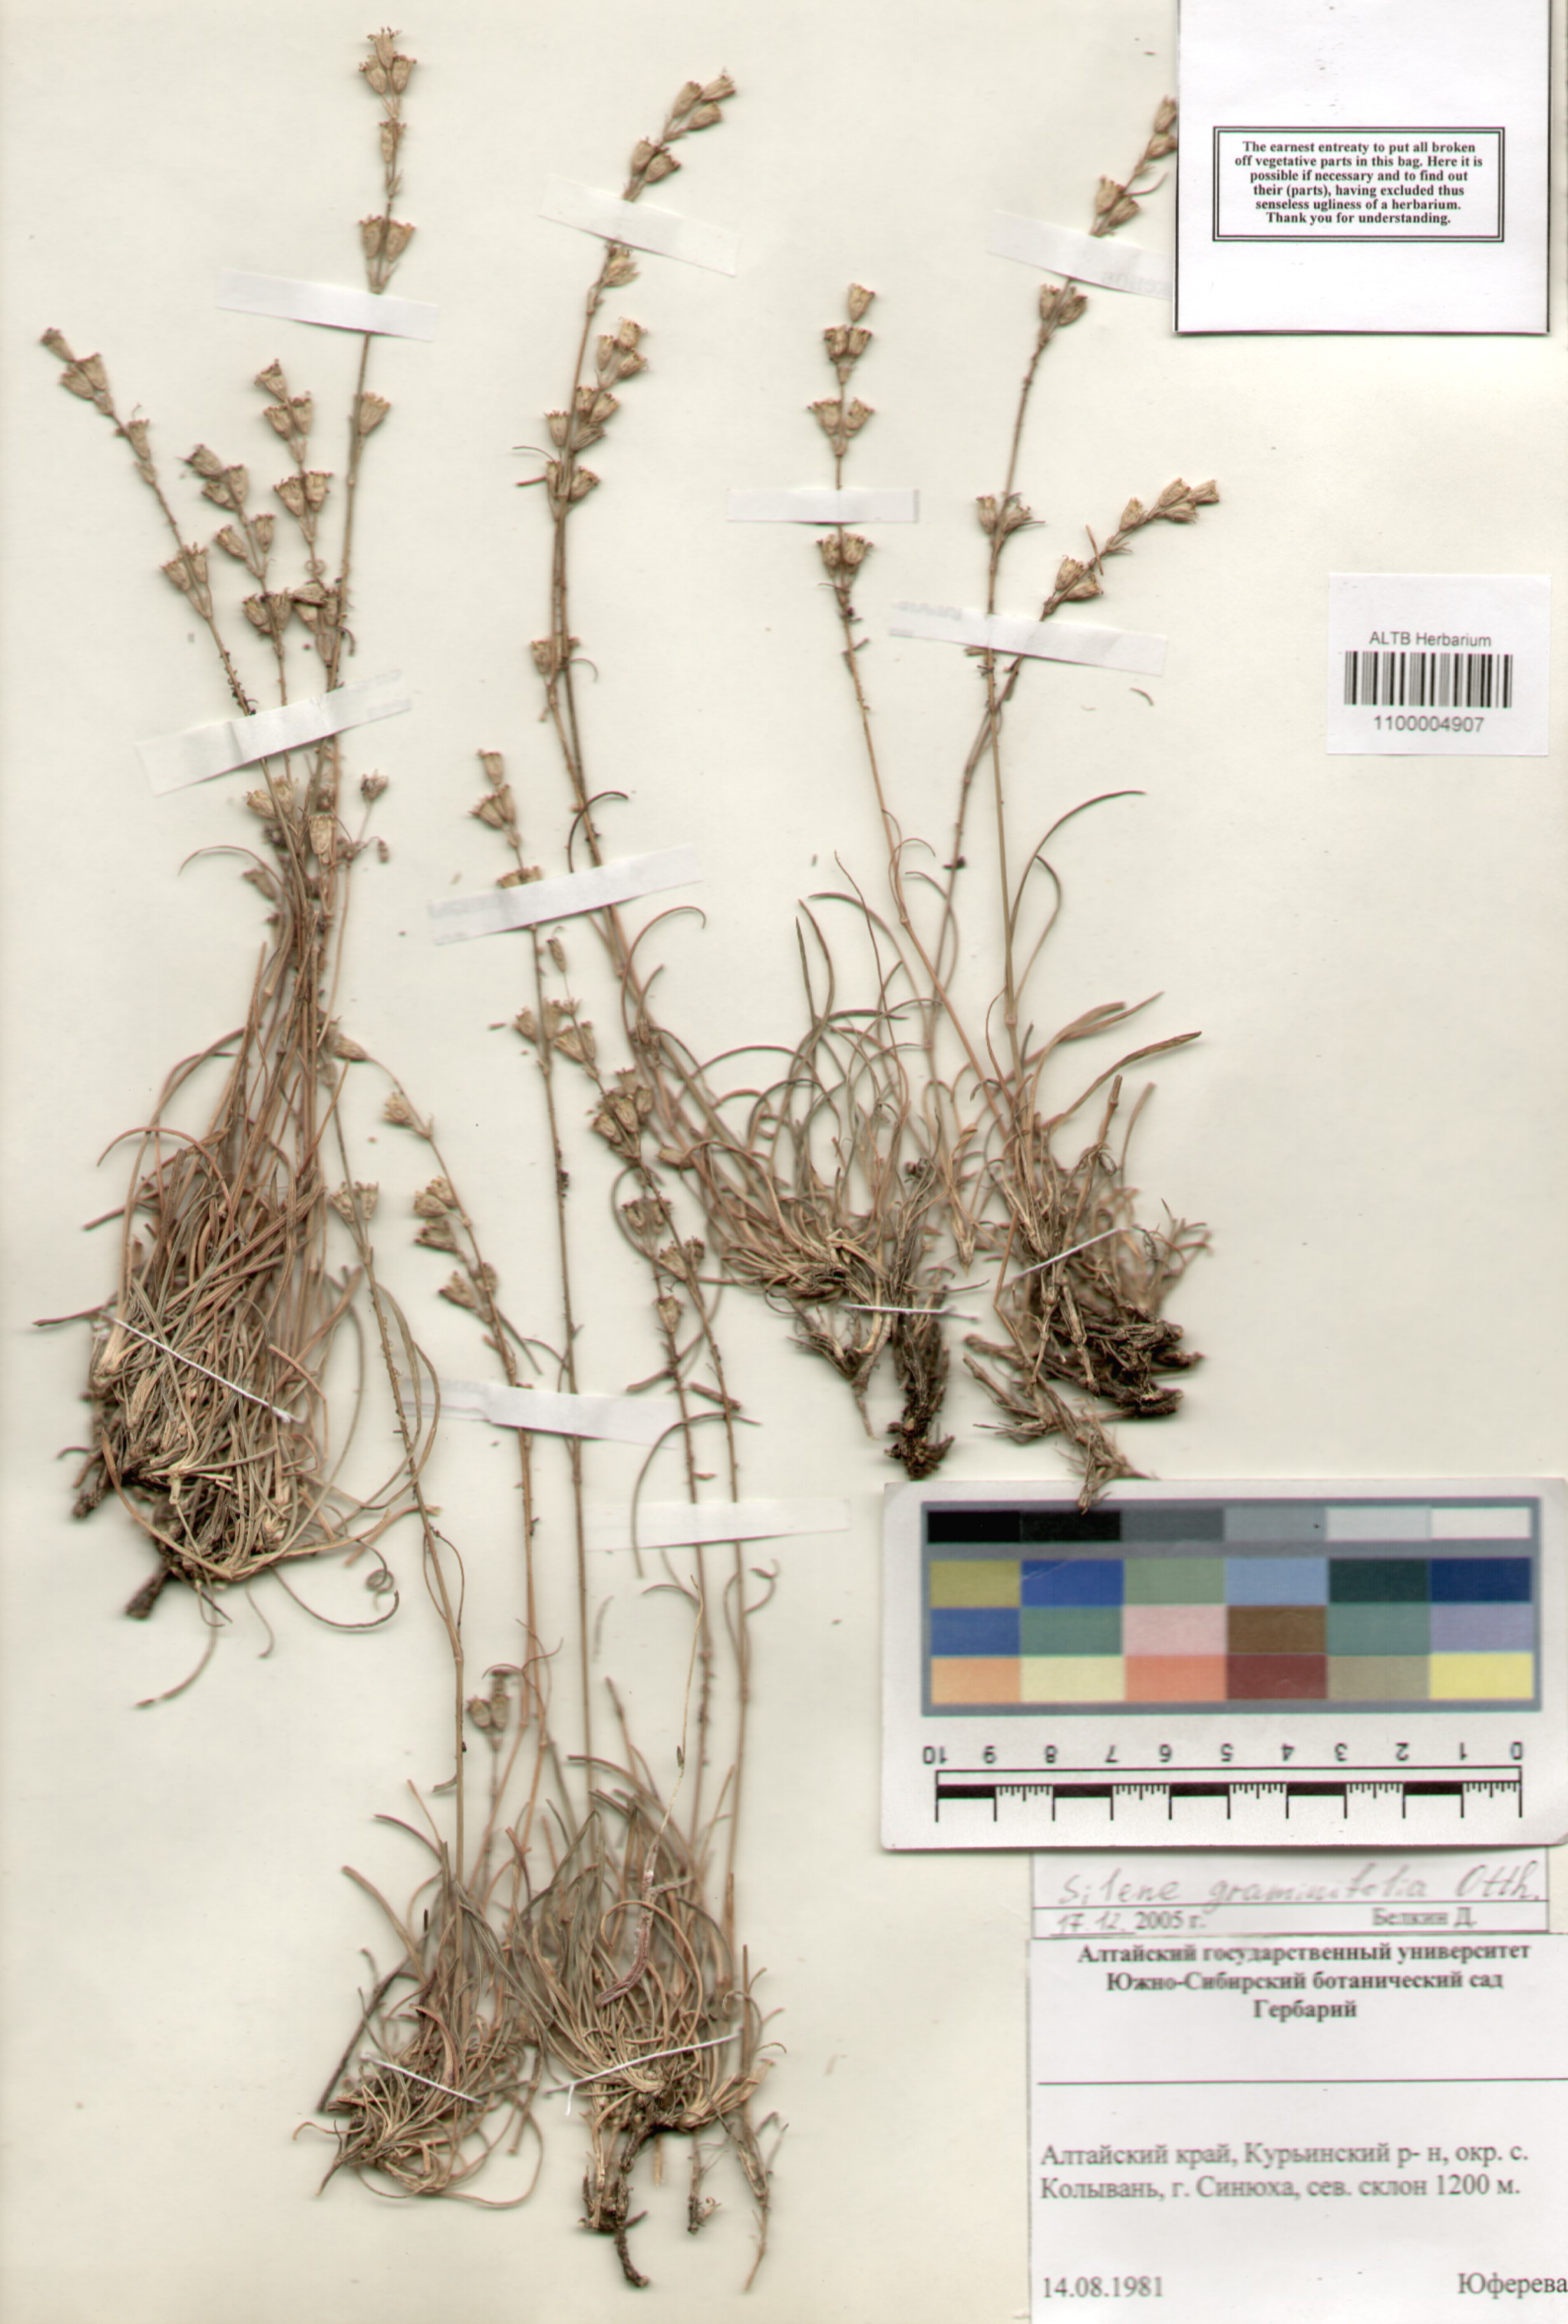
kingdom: Plantae
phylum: Tracheophyta
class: Magnoliopsida
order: Caryophyllales
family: Caryophyllaceae
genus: Silene
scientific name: Silene graminifolia
